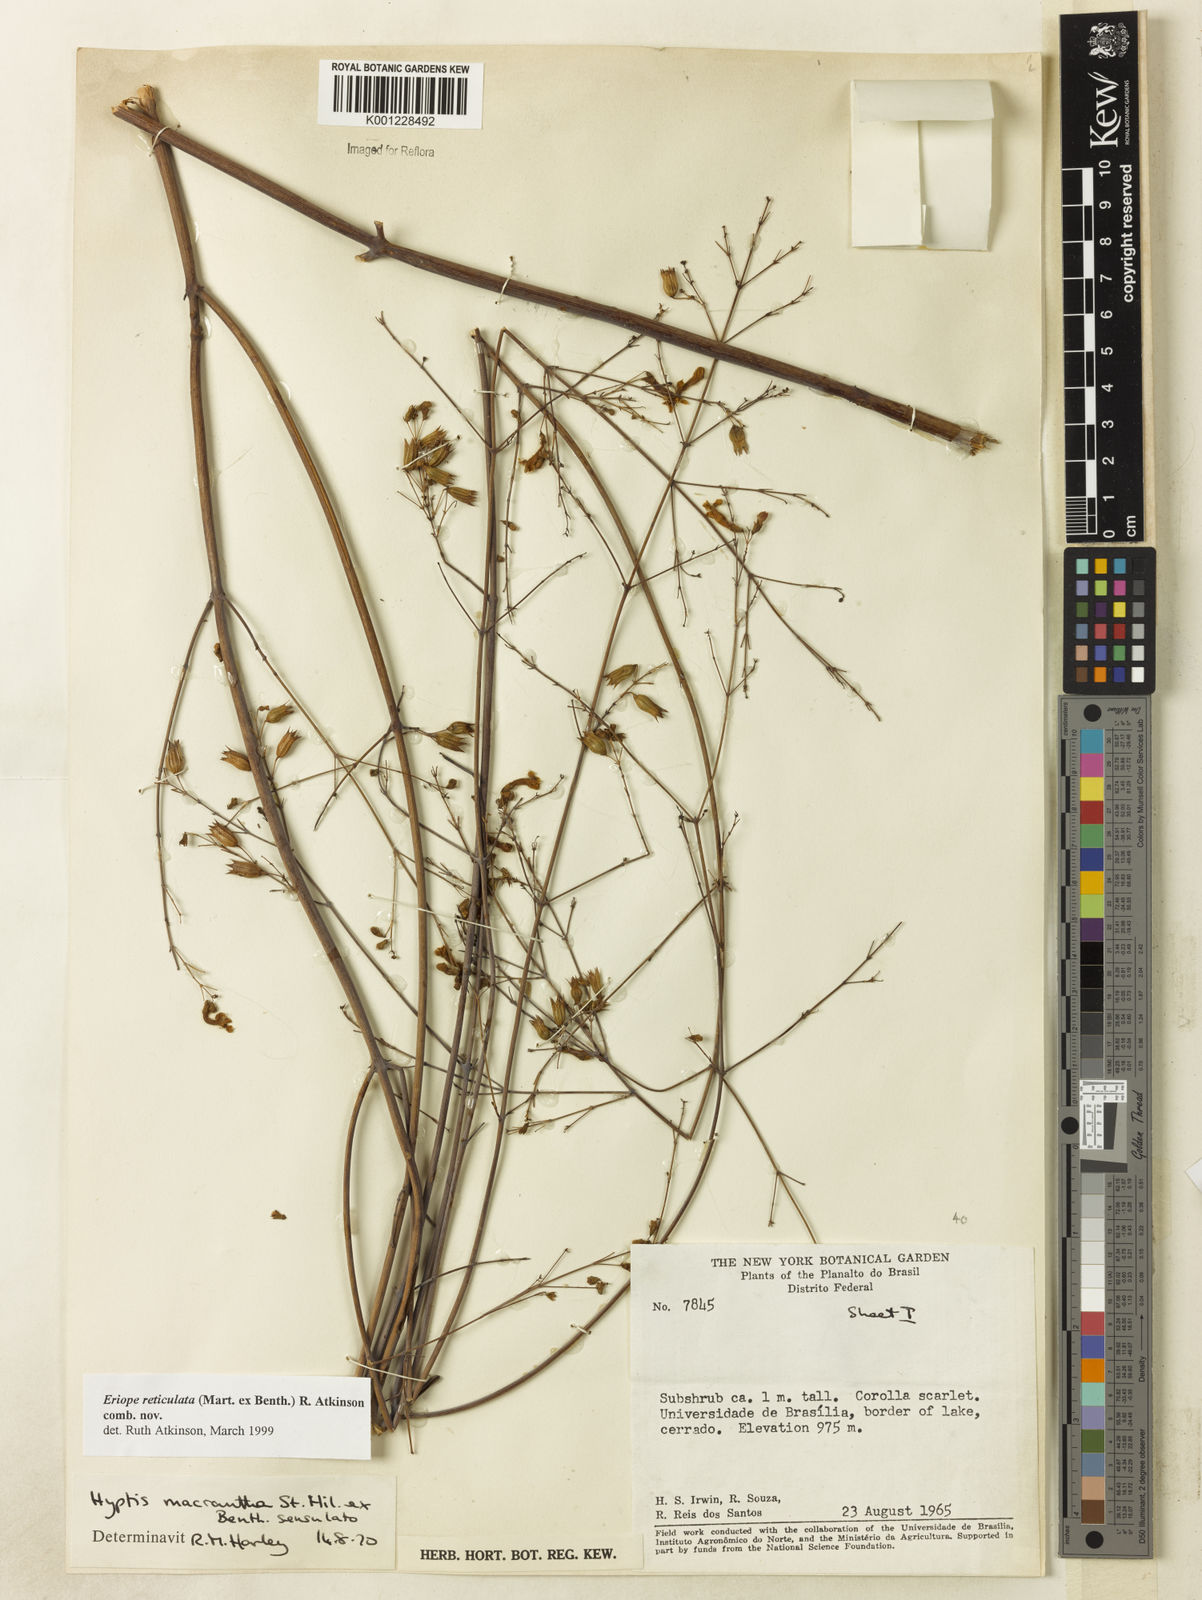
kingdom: Plantae
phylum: Tracheophyta
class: Magnoliopsida
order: Lamiales
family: Lamiaceae
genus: Hypenia
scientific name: Hypenia reticulata
